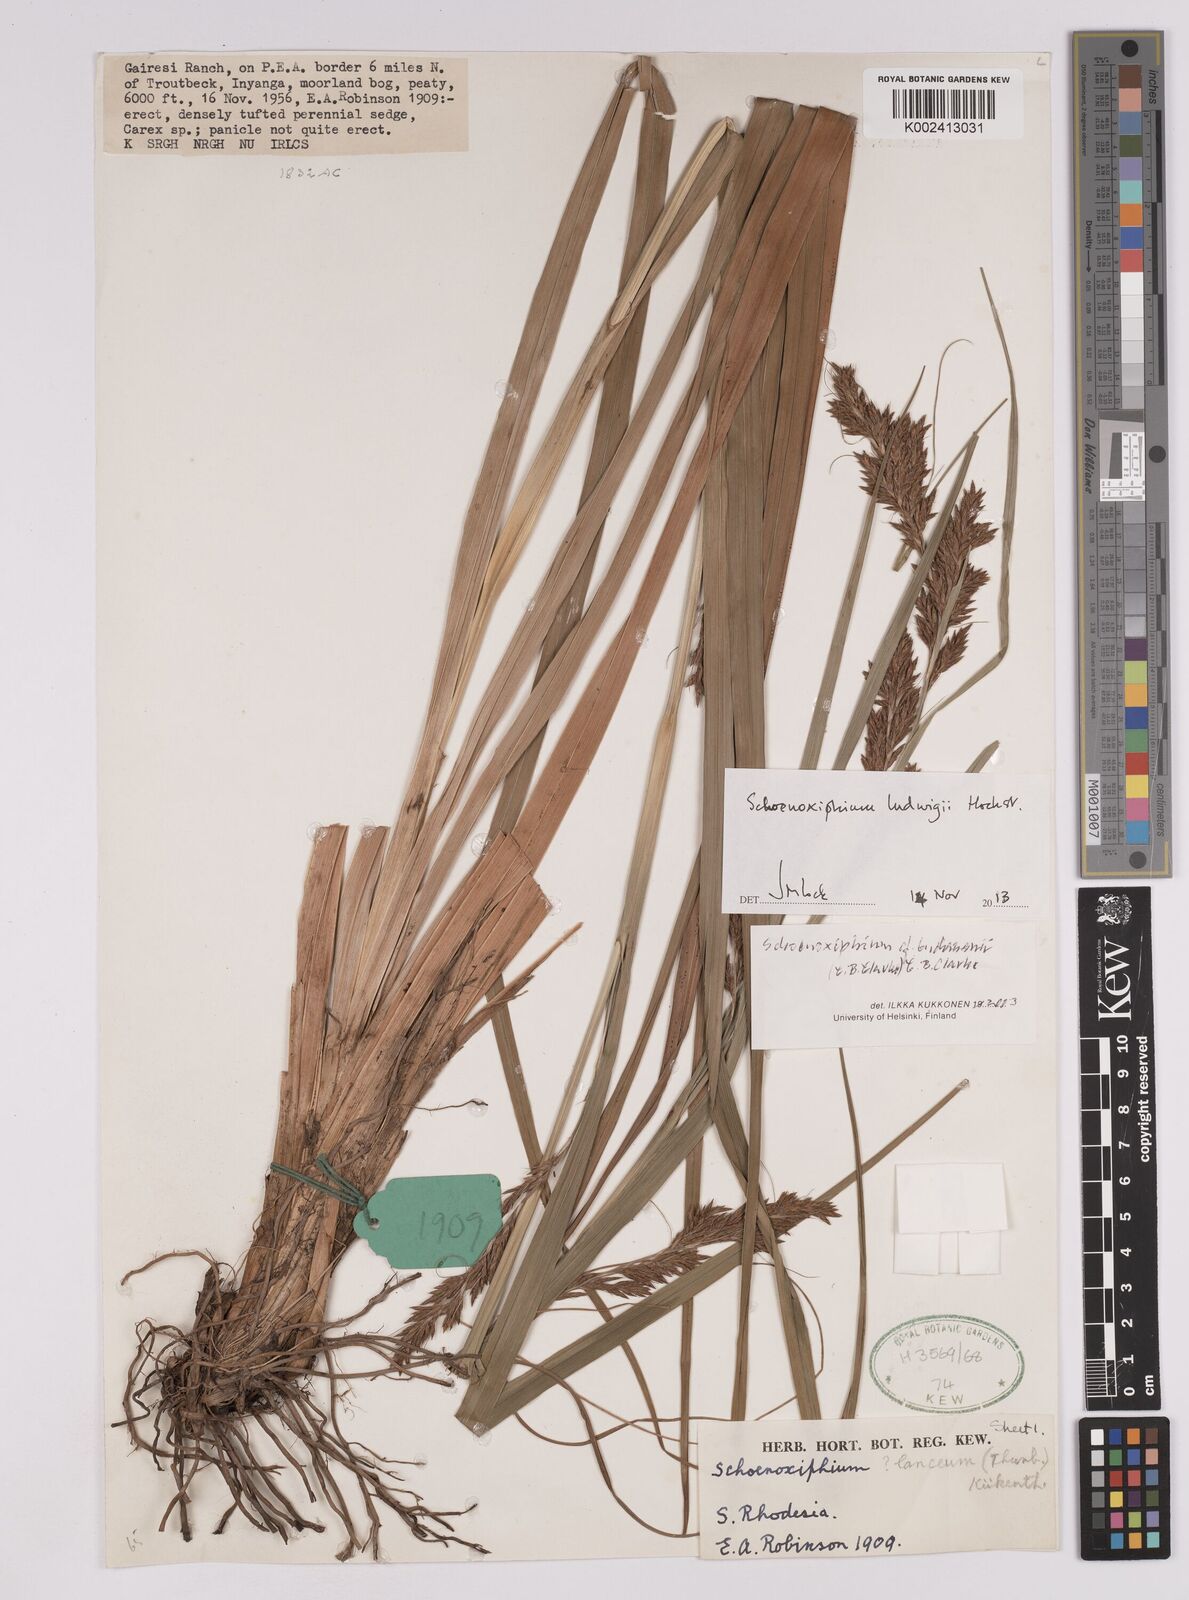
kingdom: Plantae
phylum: Tracheophyta
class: Liliopsida
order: Poales
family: Cyperaceae
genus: Carex
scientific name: Carex kukkoneniana
